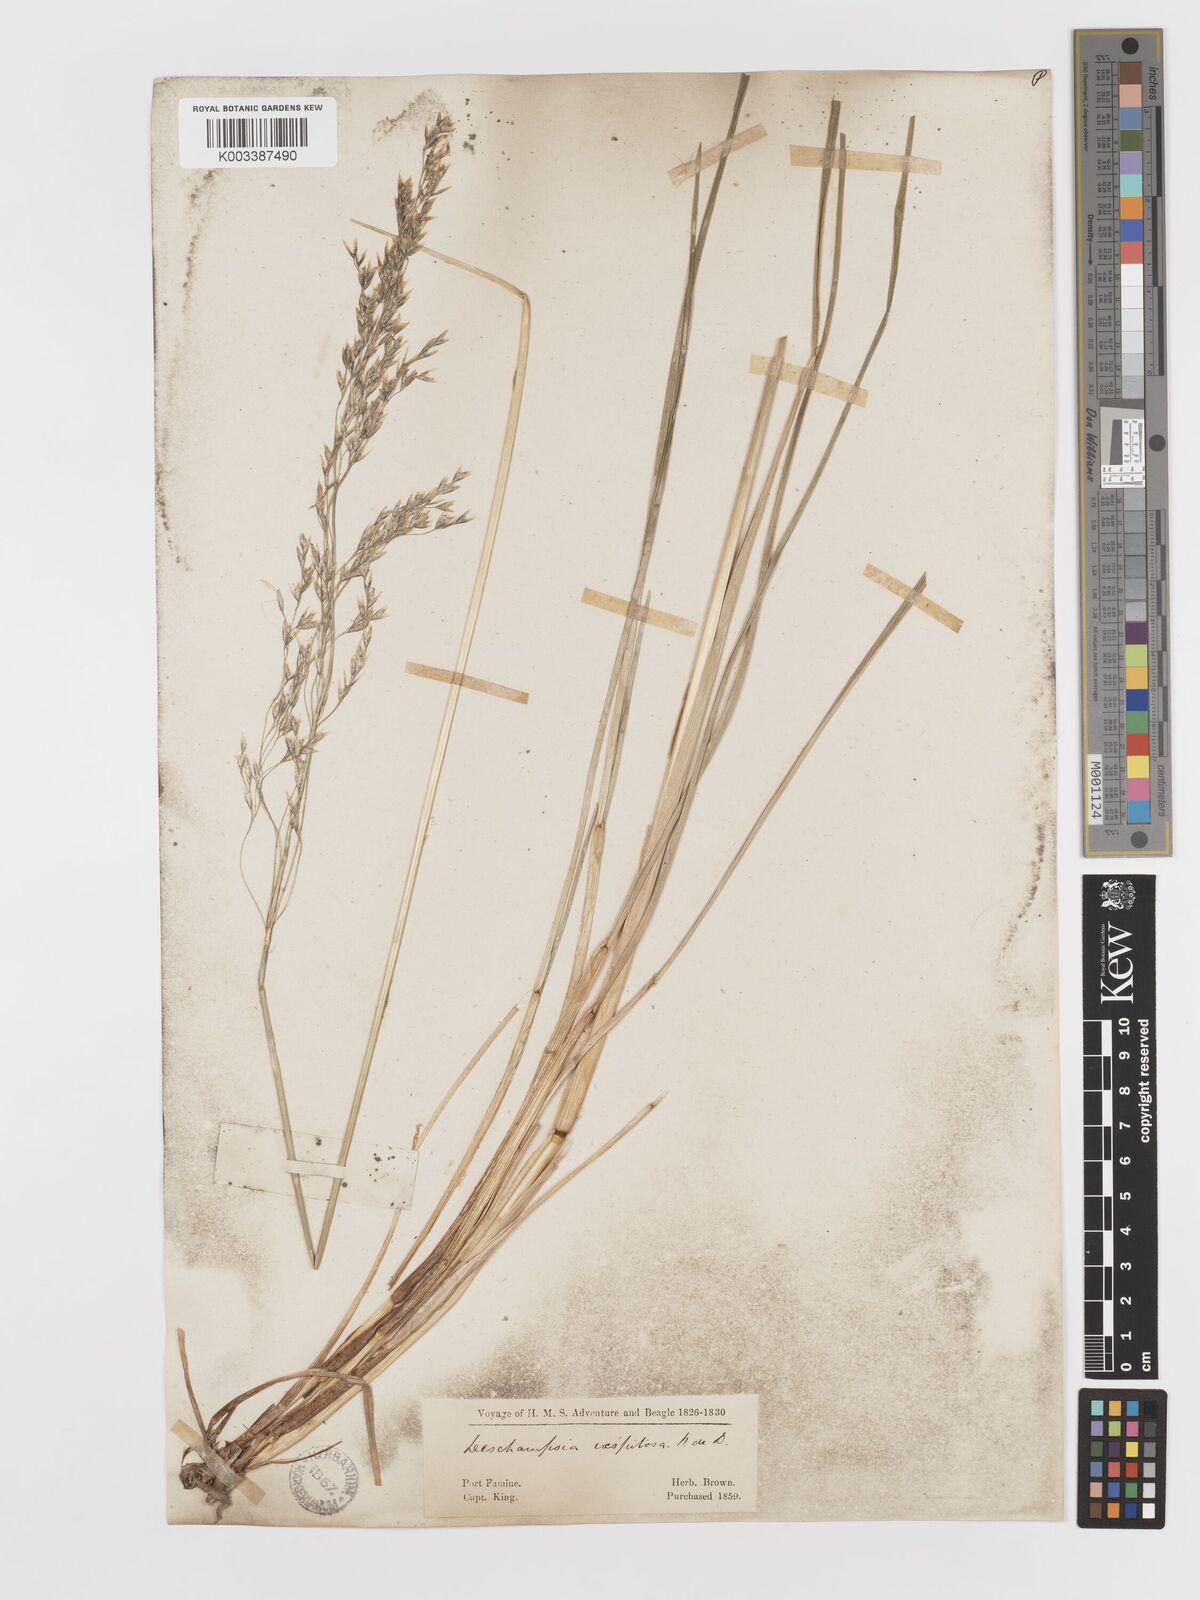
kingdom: Plantae
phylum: Tracheophyta
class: Liliopsida
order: Poales
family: Poaceae
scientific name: Poaceae
